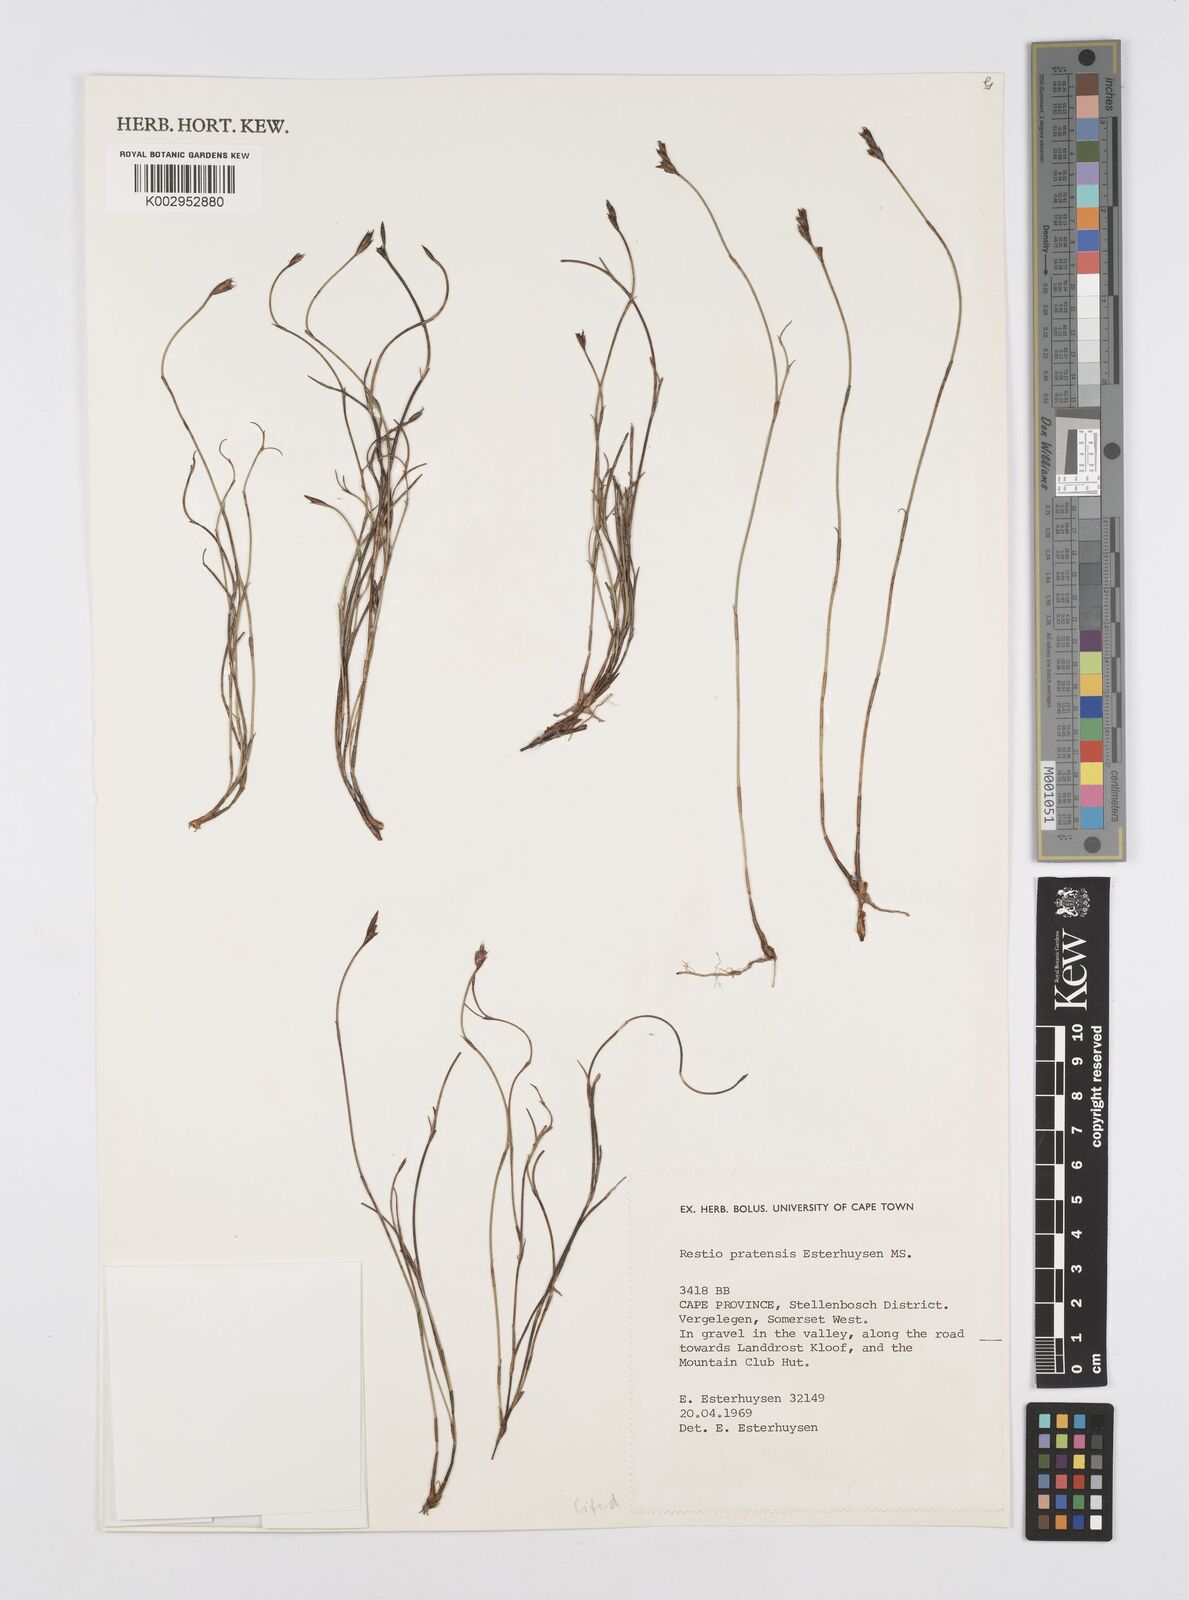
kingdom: Plantae
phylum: Tracheophyta
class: Liliopsida
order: Poales
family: Restionaceae
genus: Restio
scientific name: Restio pratensis
